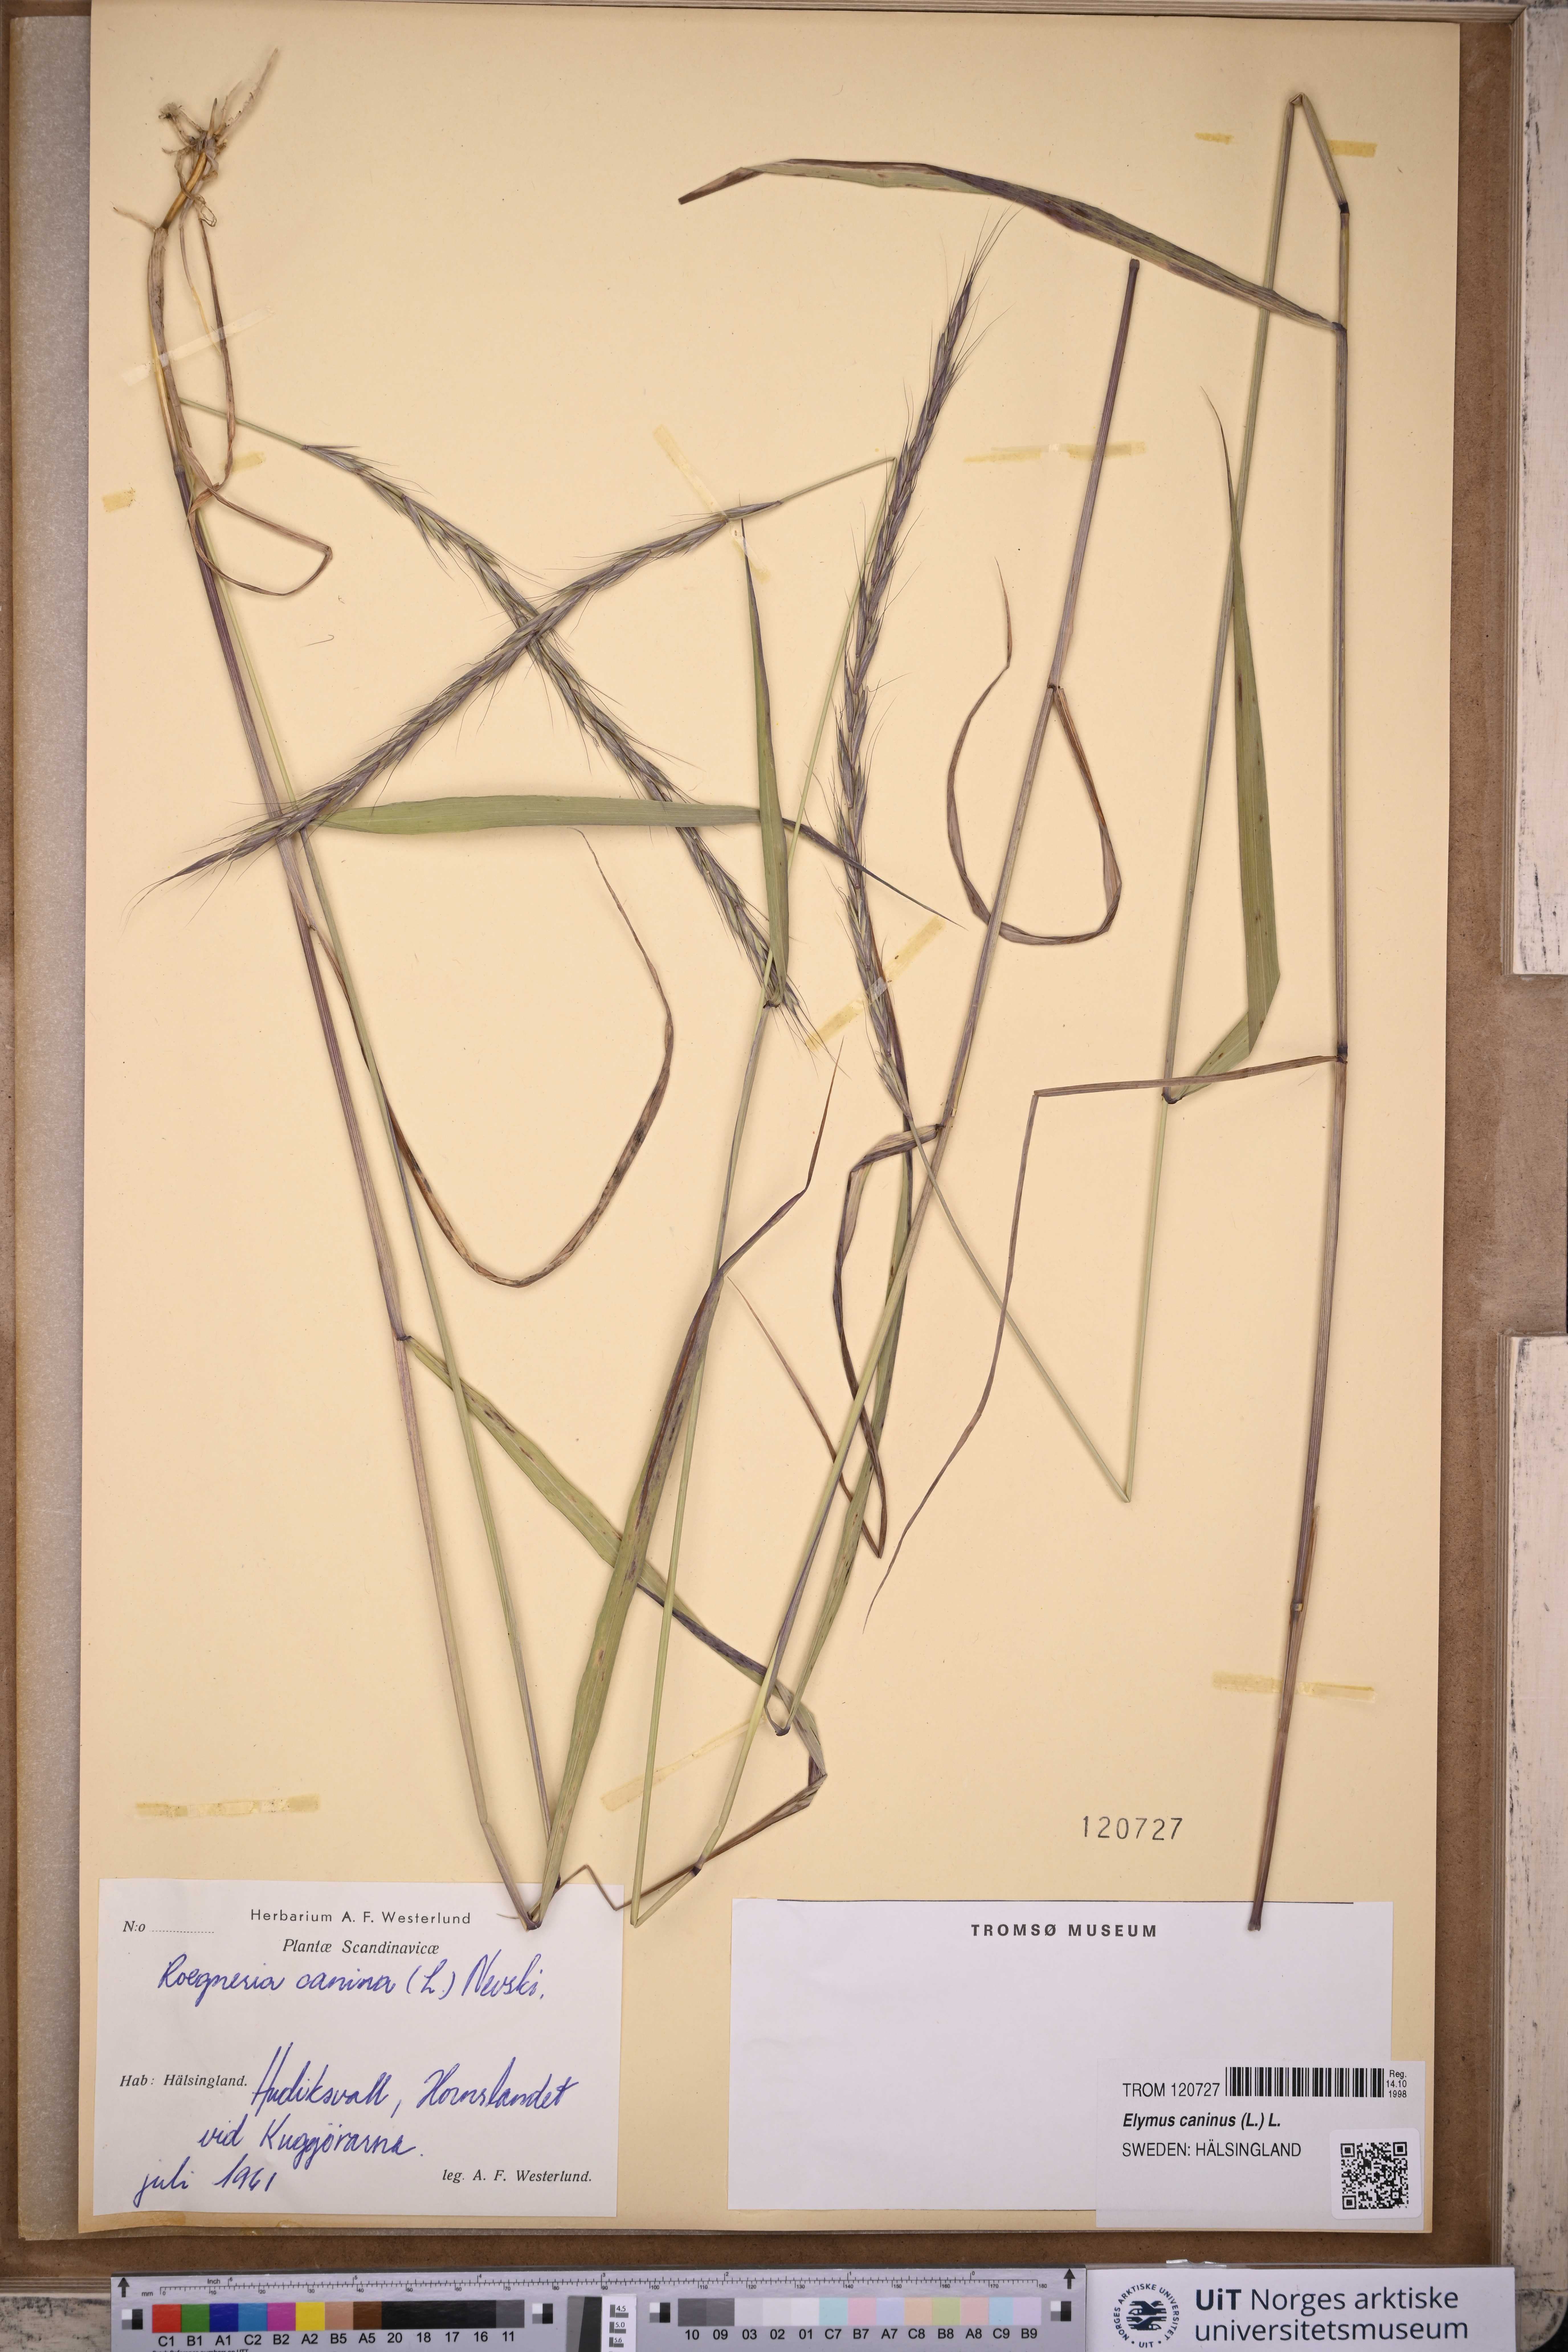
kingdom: Plantae
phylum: Tracheophyta
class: Liliopsida
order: Poales
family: Poaceae
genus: Elymus
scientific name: Elymus caninus
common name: Bearded couch
